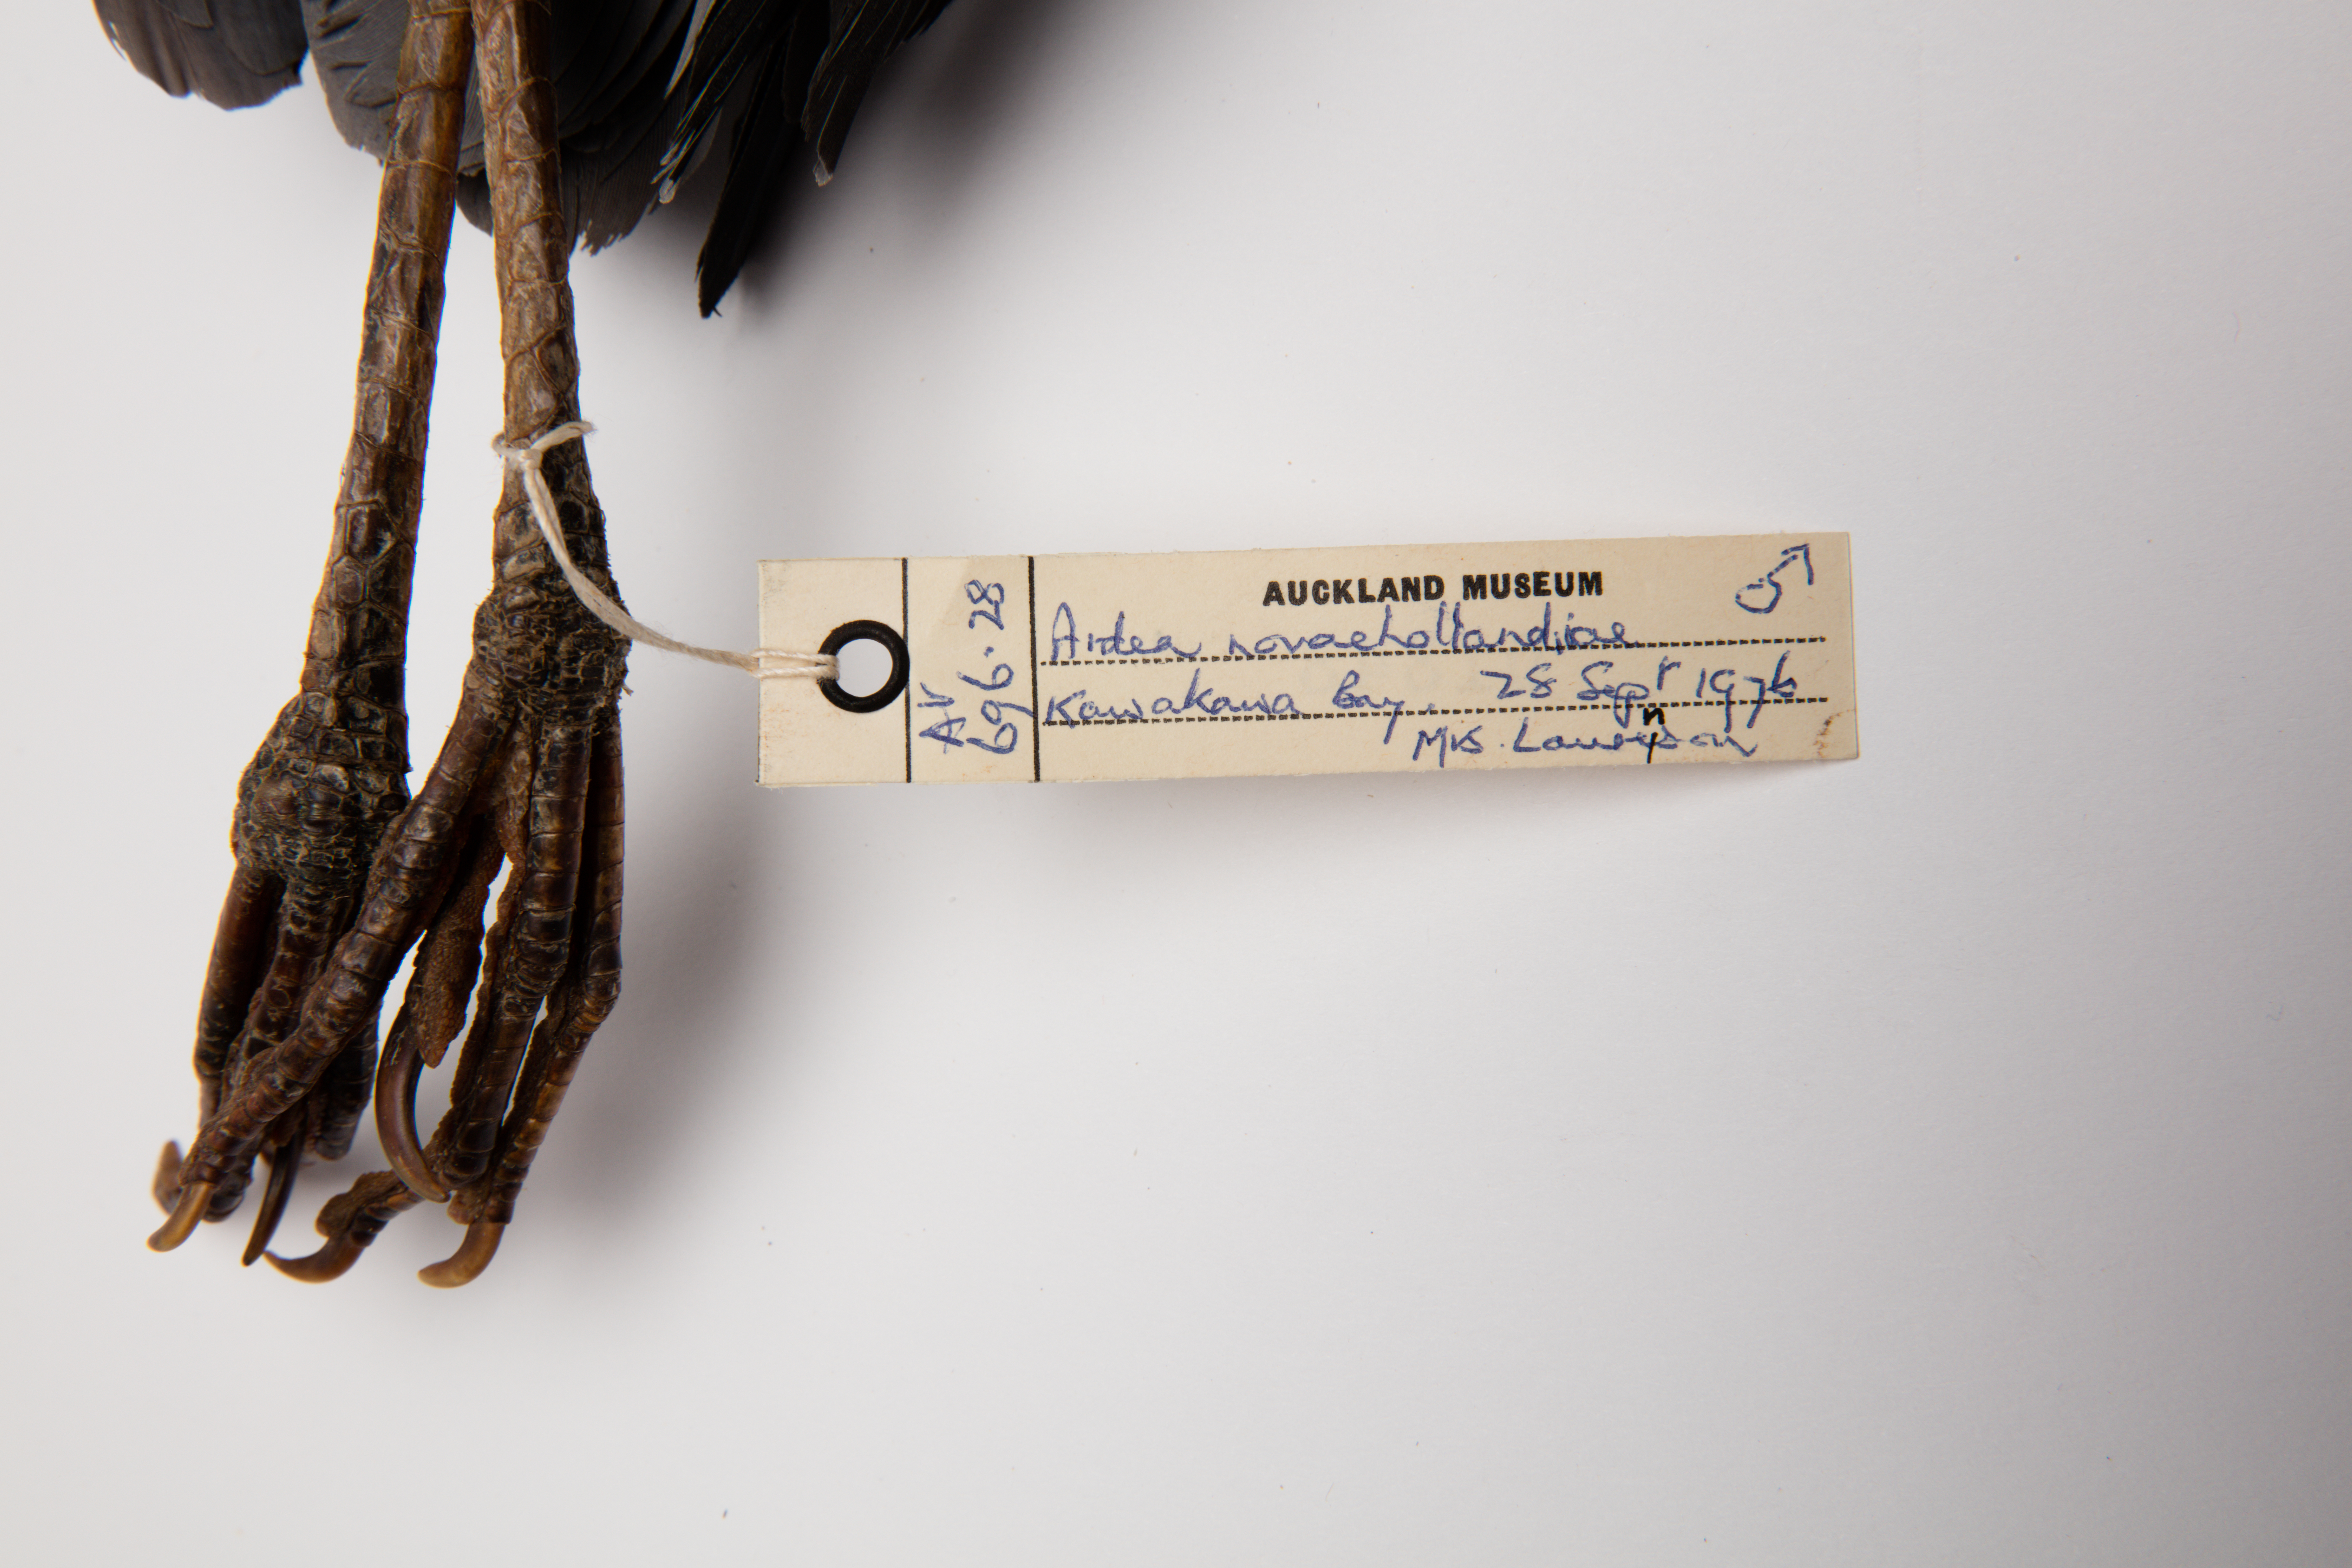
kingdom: Animalia
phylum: Chordata
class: Aves
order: Pelecaniformes
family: Ardeidae
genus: Egretta
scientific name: Egretta novaehollandiae
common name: White-faced heron
